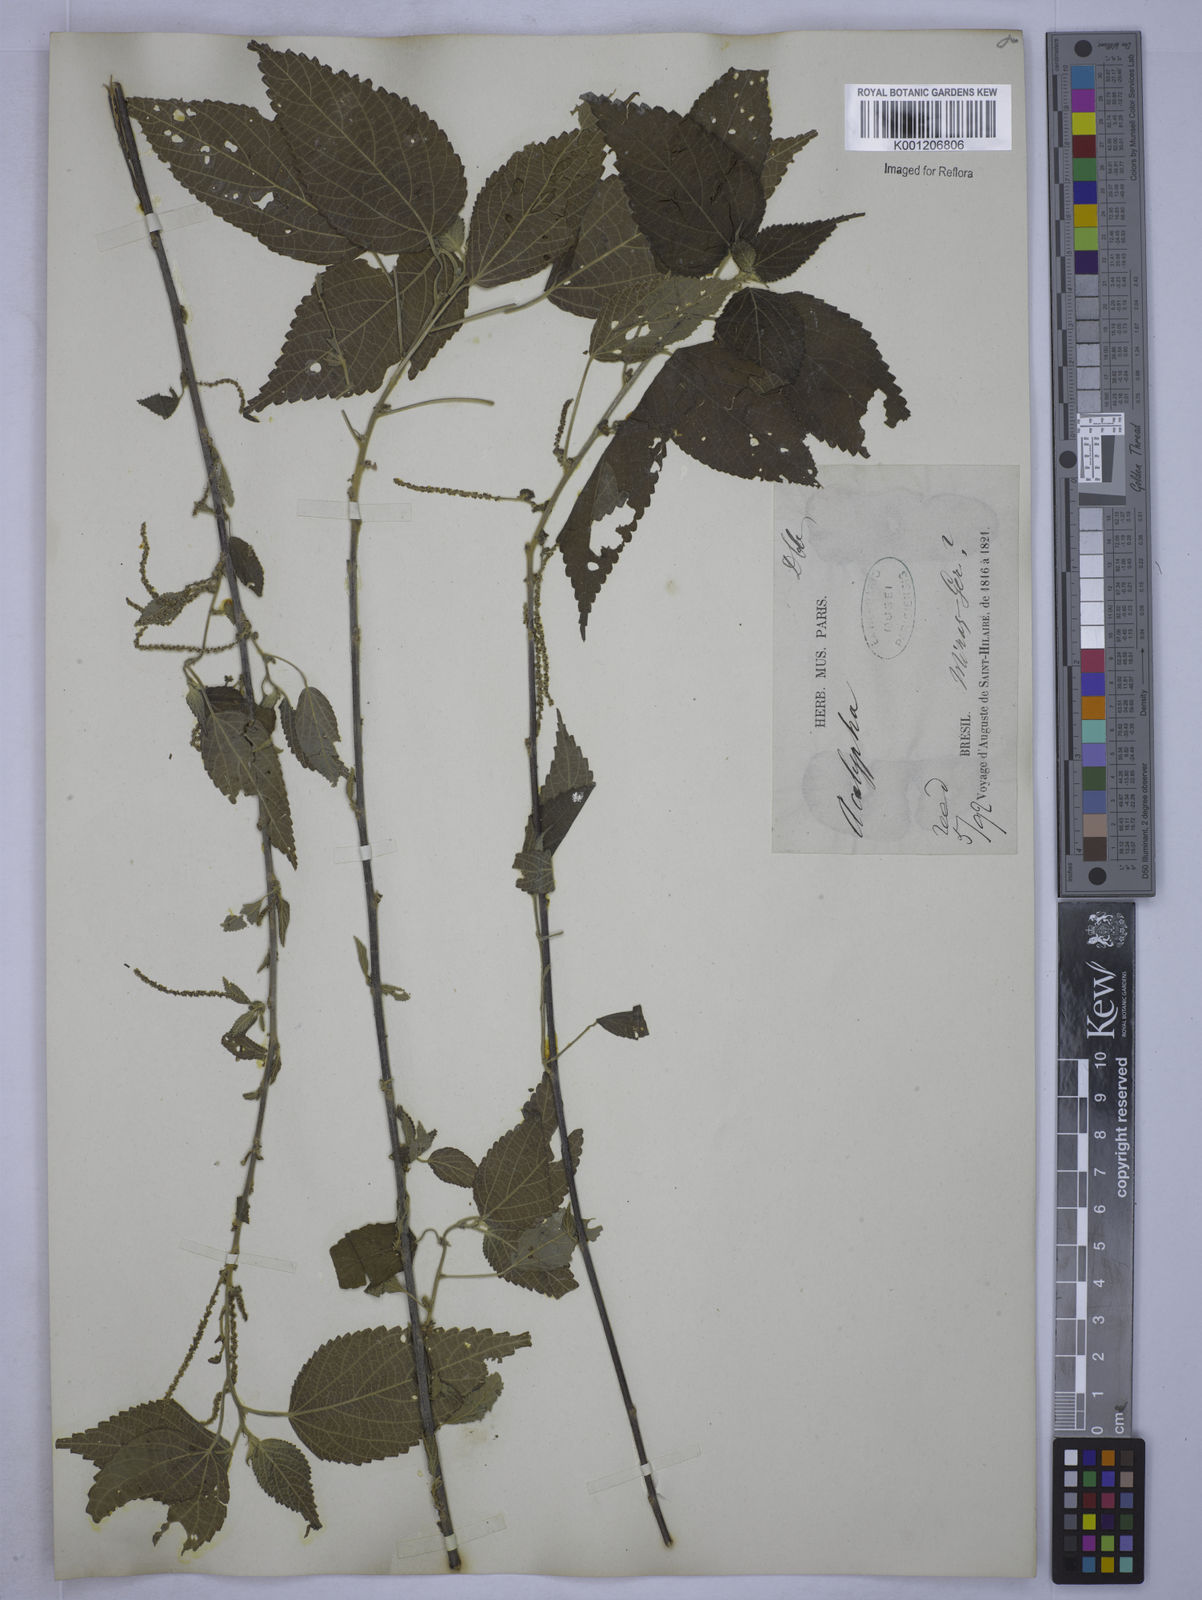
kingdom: Plantae
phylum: Tracheophyta
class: Magnoliopsida
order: Malpighiales
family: Euphorbiaceae
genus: Acalypha
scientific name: Acalypha
